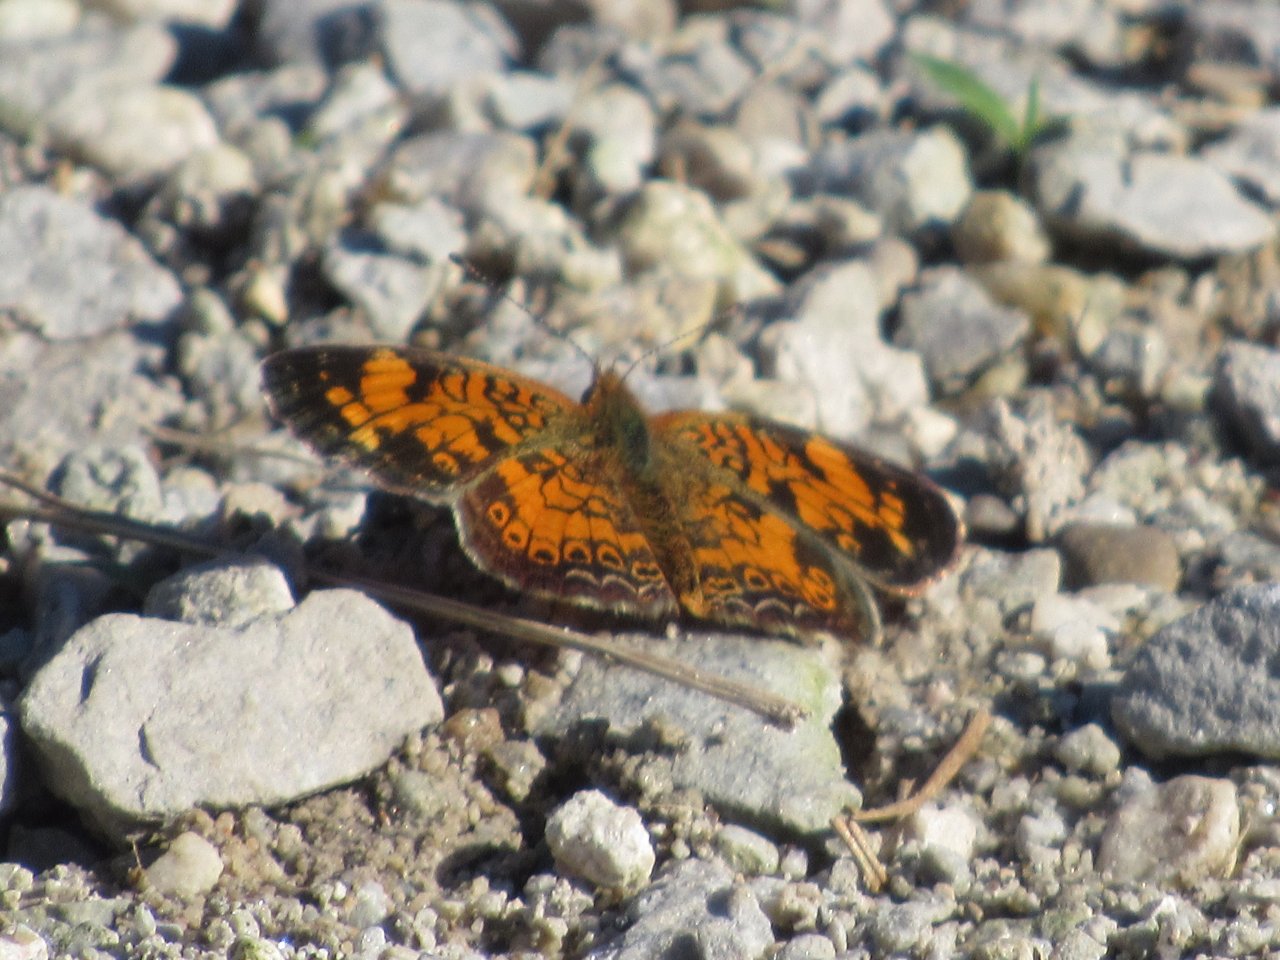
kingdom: Animalia
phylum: Arthropoda
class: Insecta
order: Lepidoptera
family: Nymphalidae
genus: Phyciodes
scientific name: Phyciodes tharos
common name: Pearl Crescent
